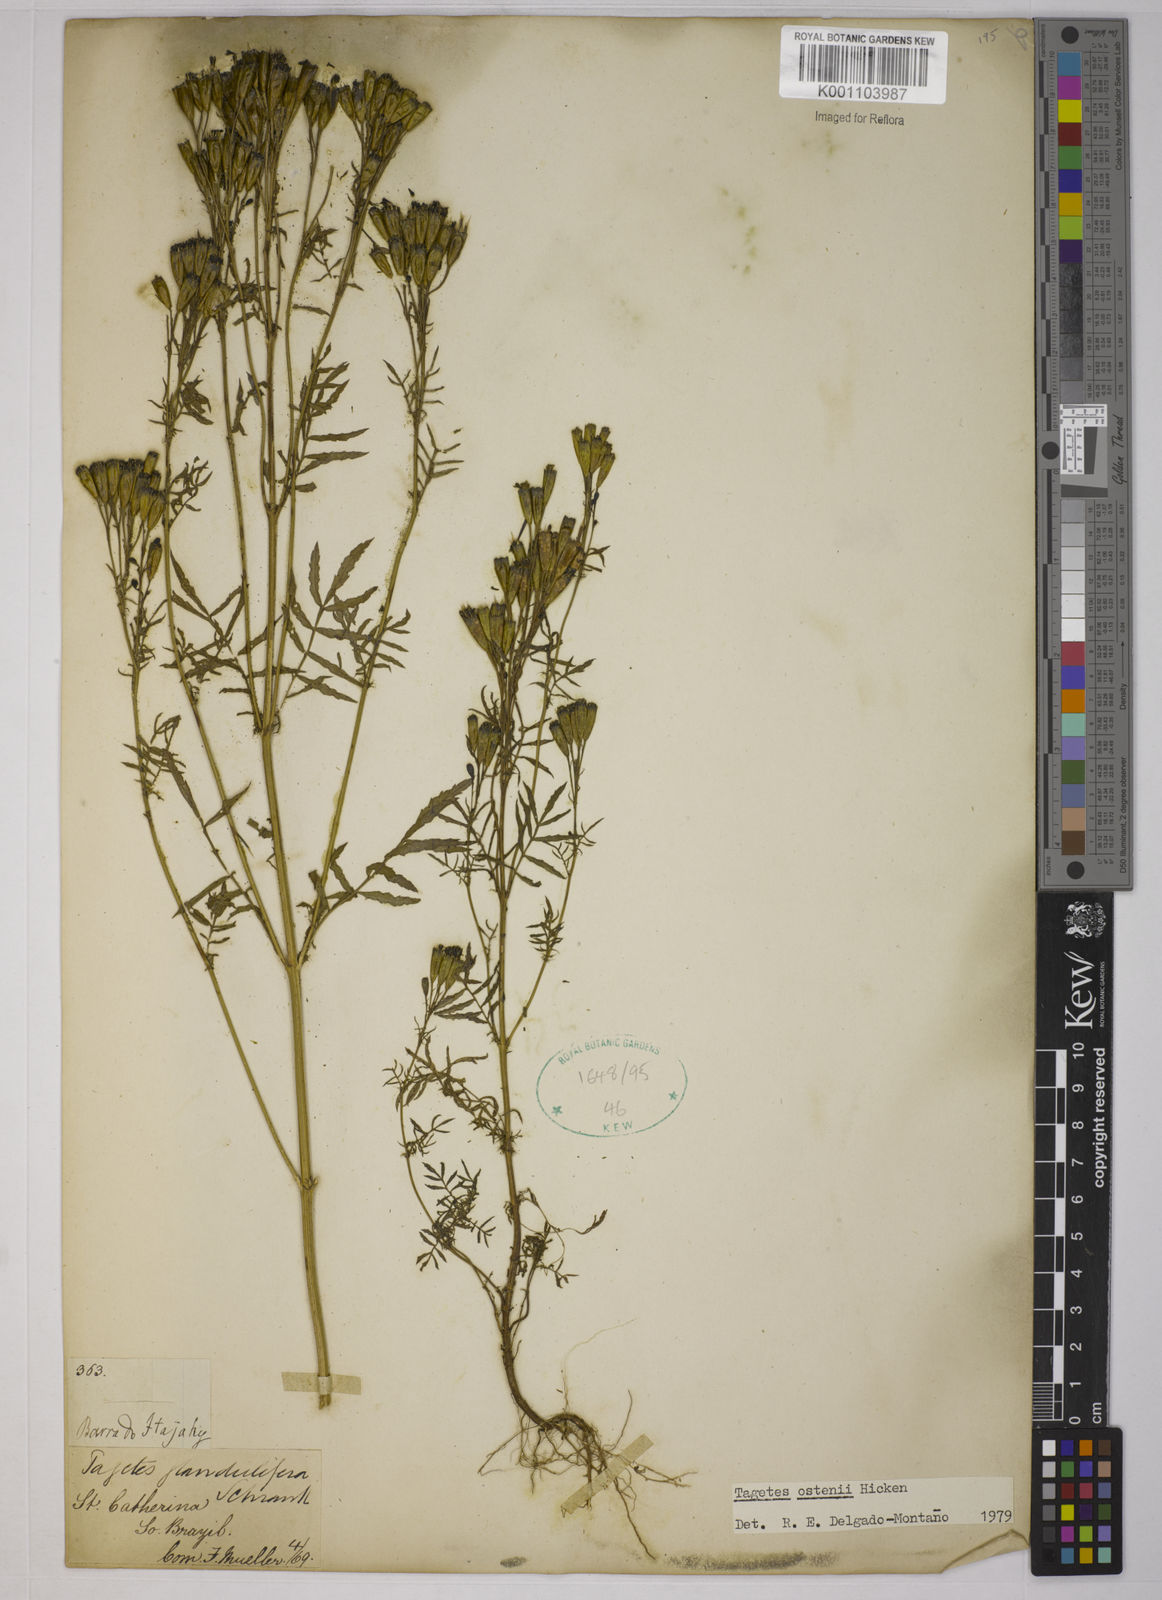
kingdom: Plantae
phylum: Tracheophyta
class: Magnoliopsida
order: Asterales
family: Asteraceae
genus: Tagetes
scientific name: Tagetes ostenii
